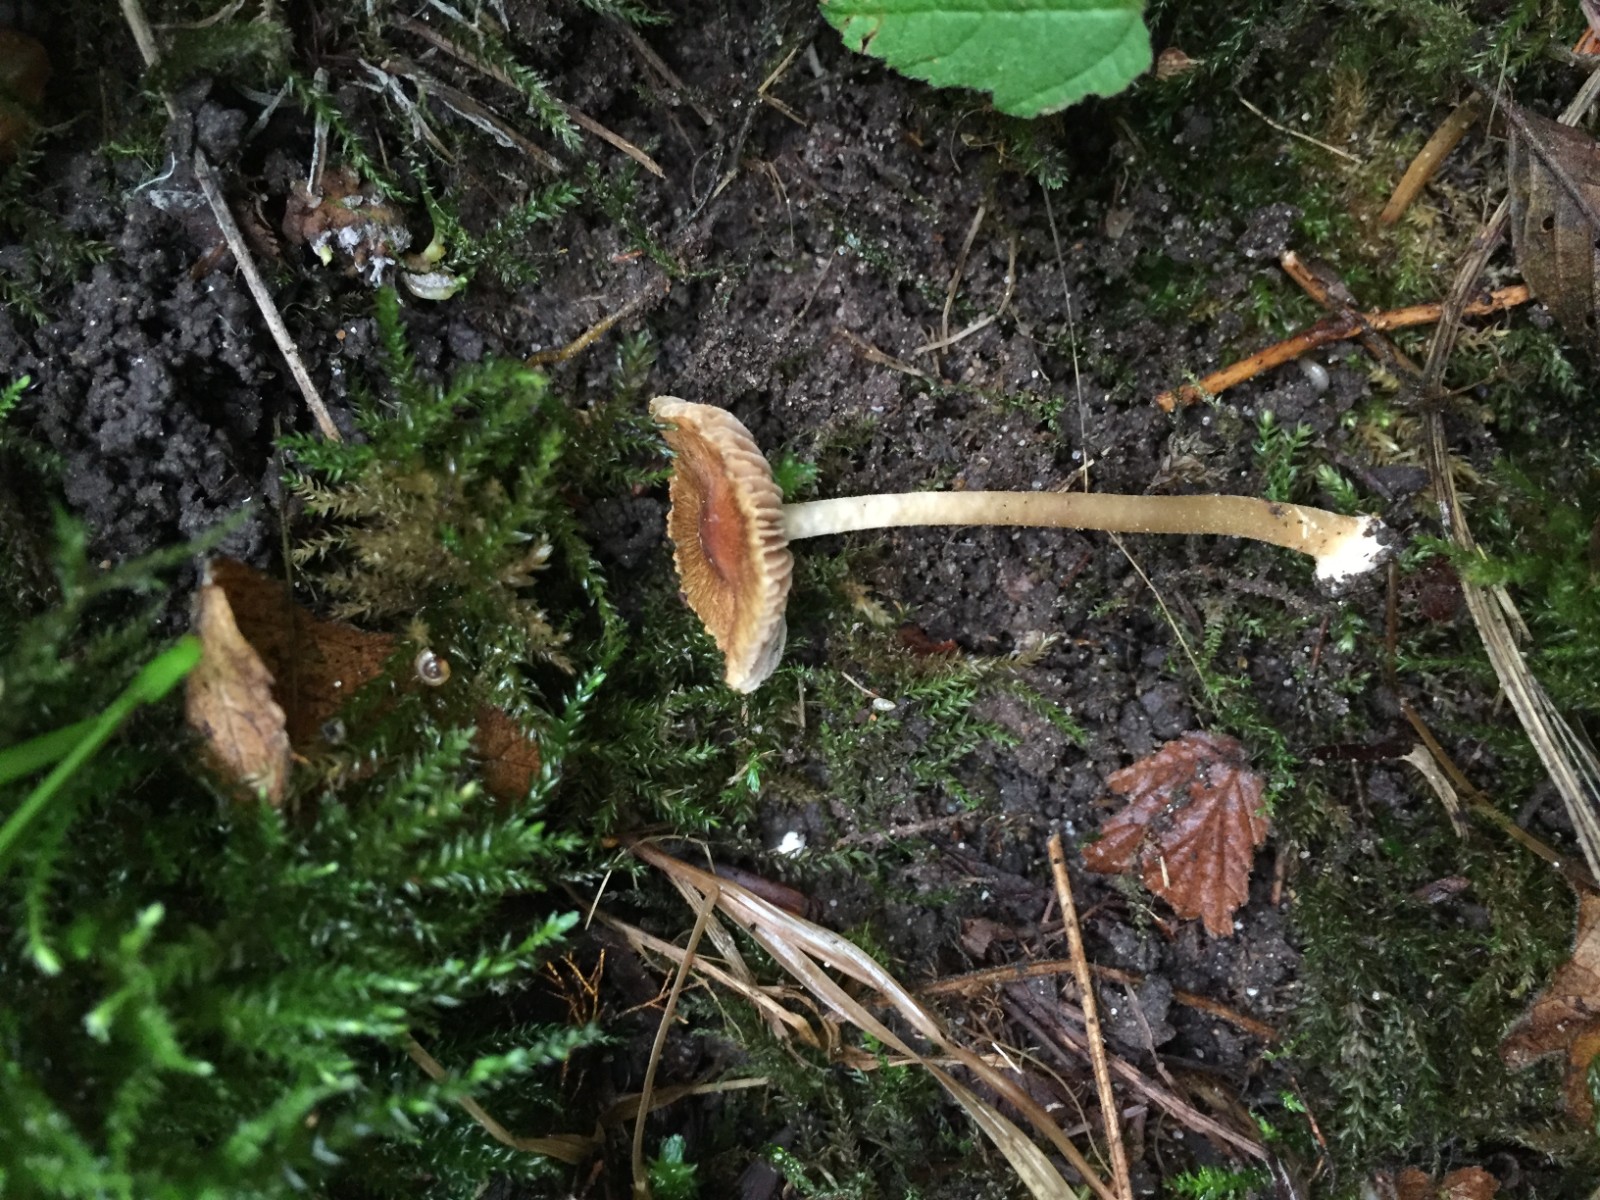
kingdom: Fungi
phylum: Basidiomycota
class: Agaricomycetes
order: Agaricales
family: Inocybaceae
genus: Inocybe
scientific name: Inocybe salicis
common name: pile-trævlhat
